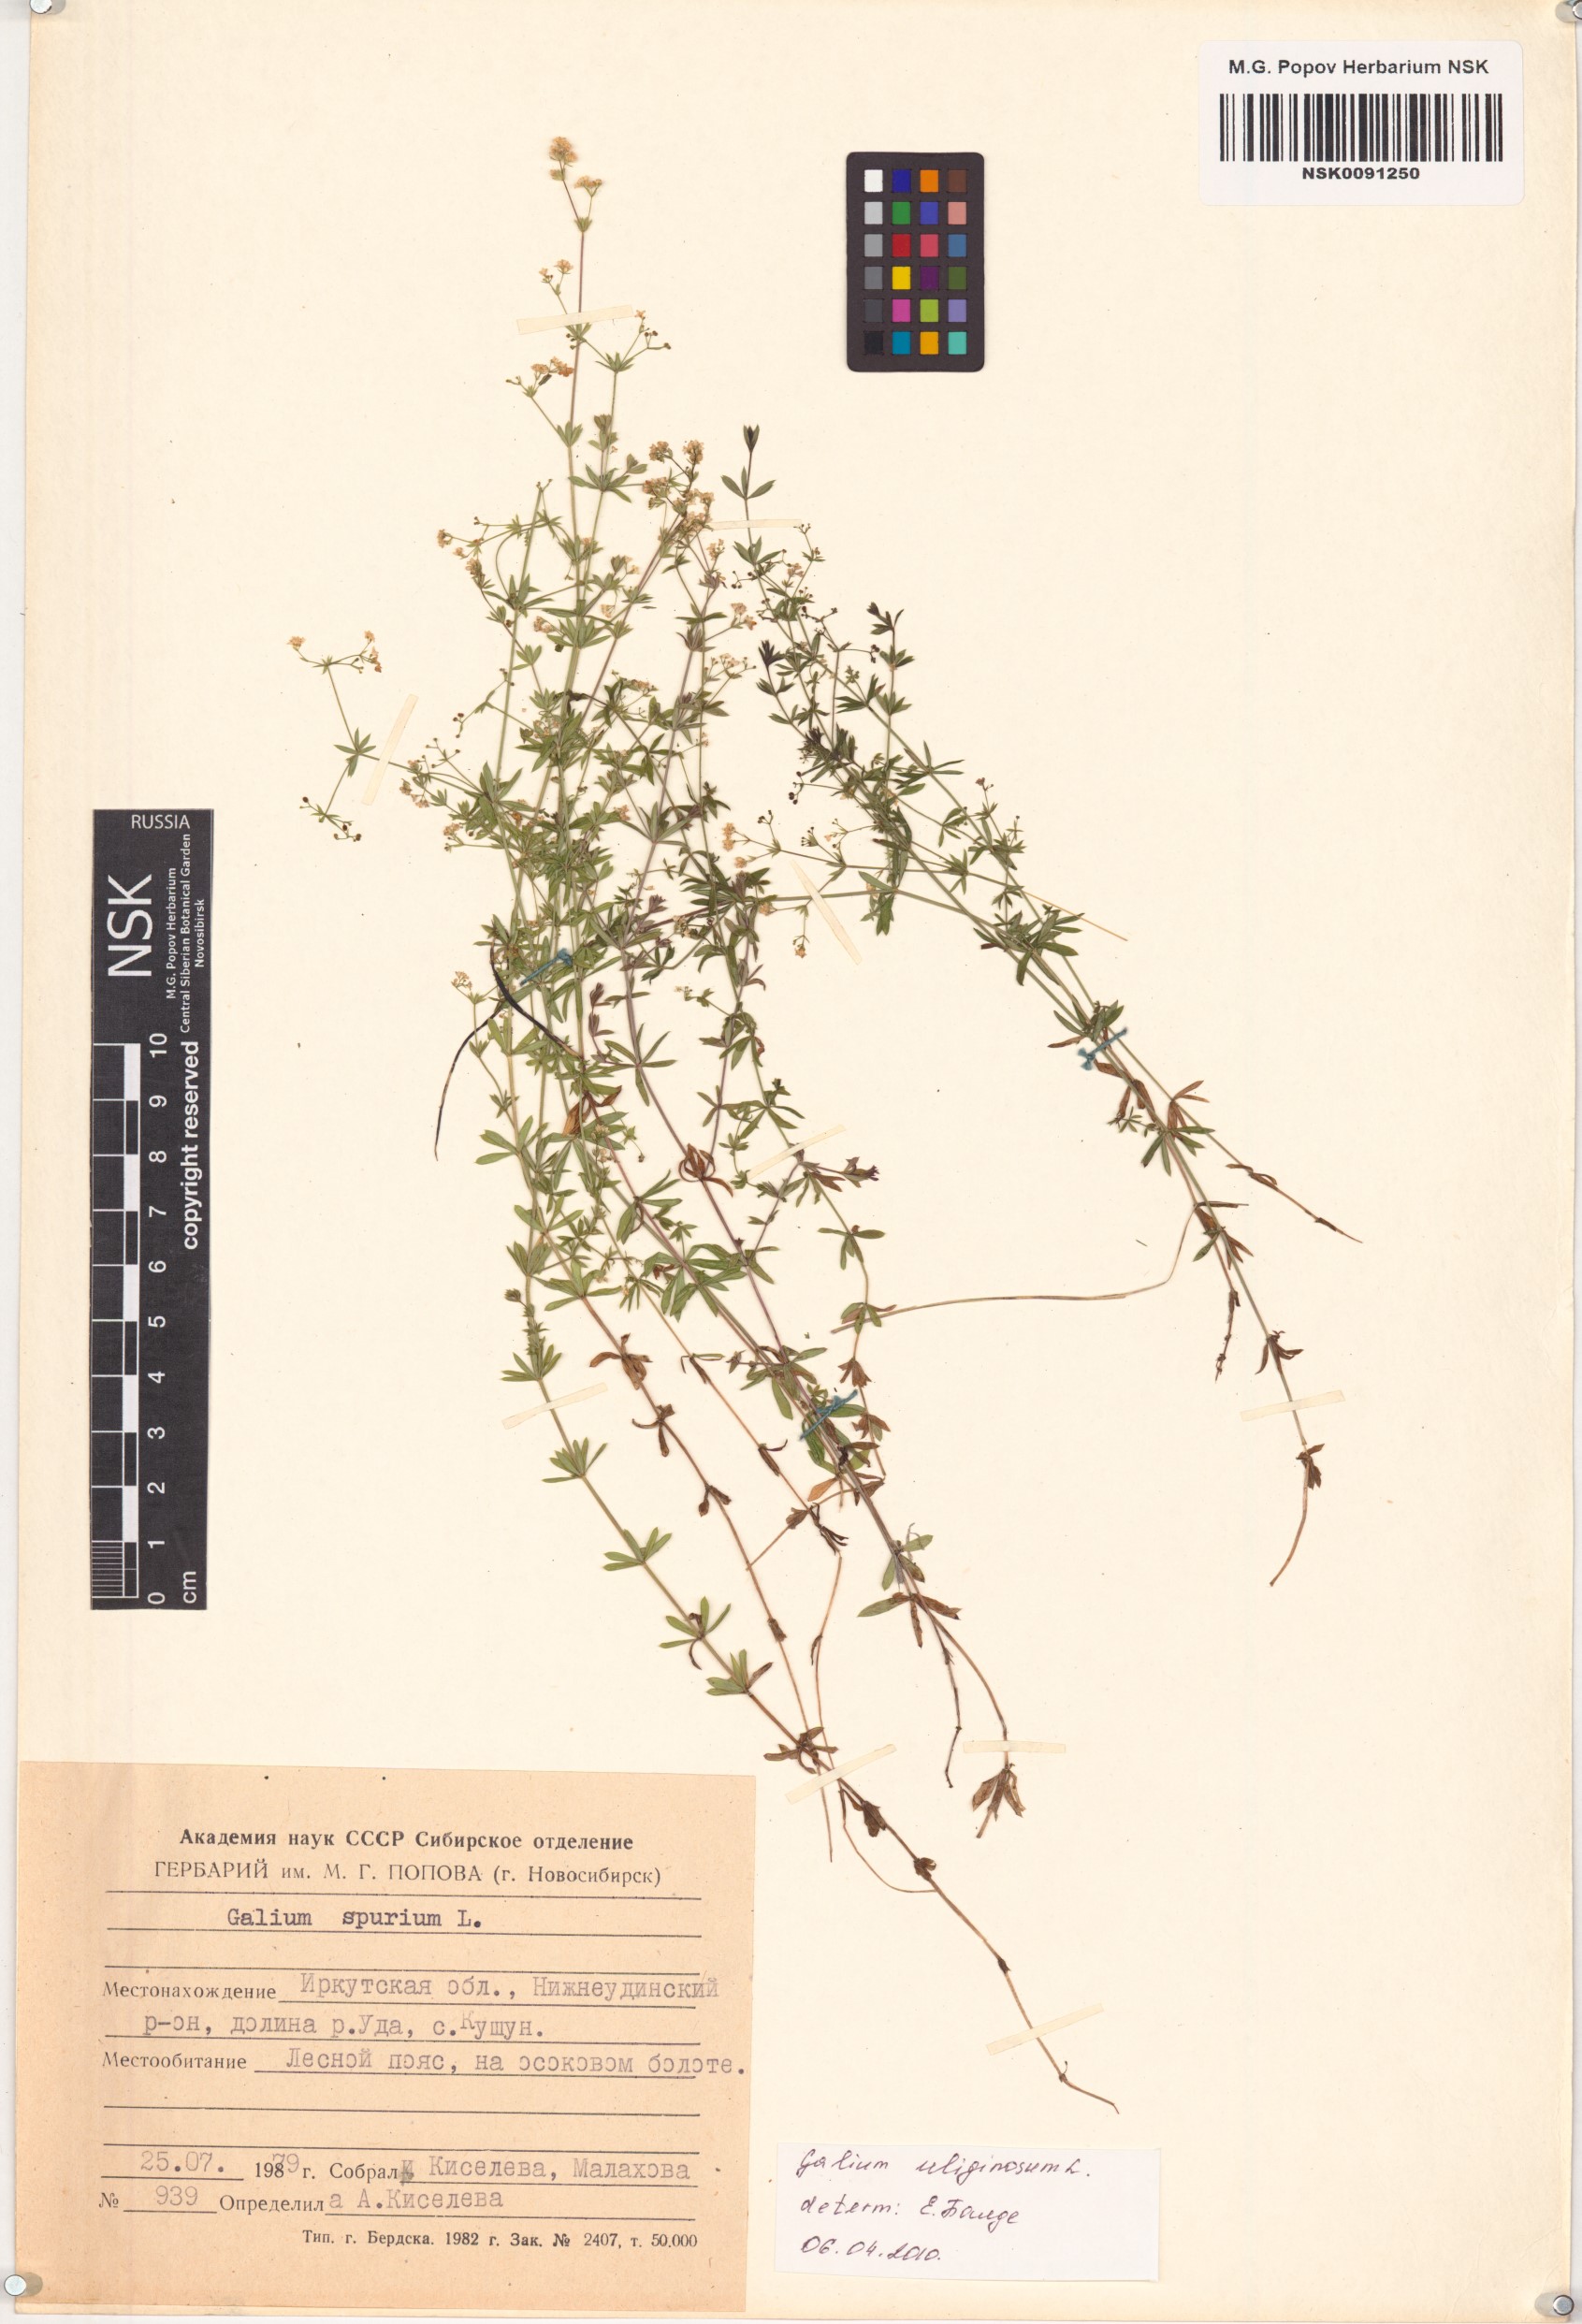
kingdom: Plantae
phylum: Tracheophyta
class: Magnoliopsida
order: Gentianales
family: Rubiaceae
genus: Galium
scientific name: Galium uliginosum
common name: Fen bedstraw
